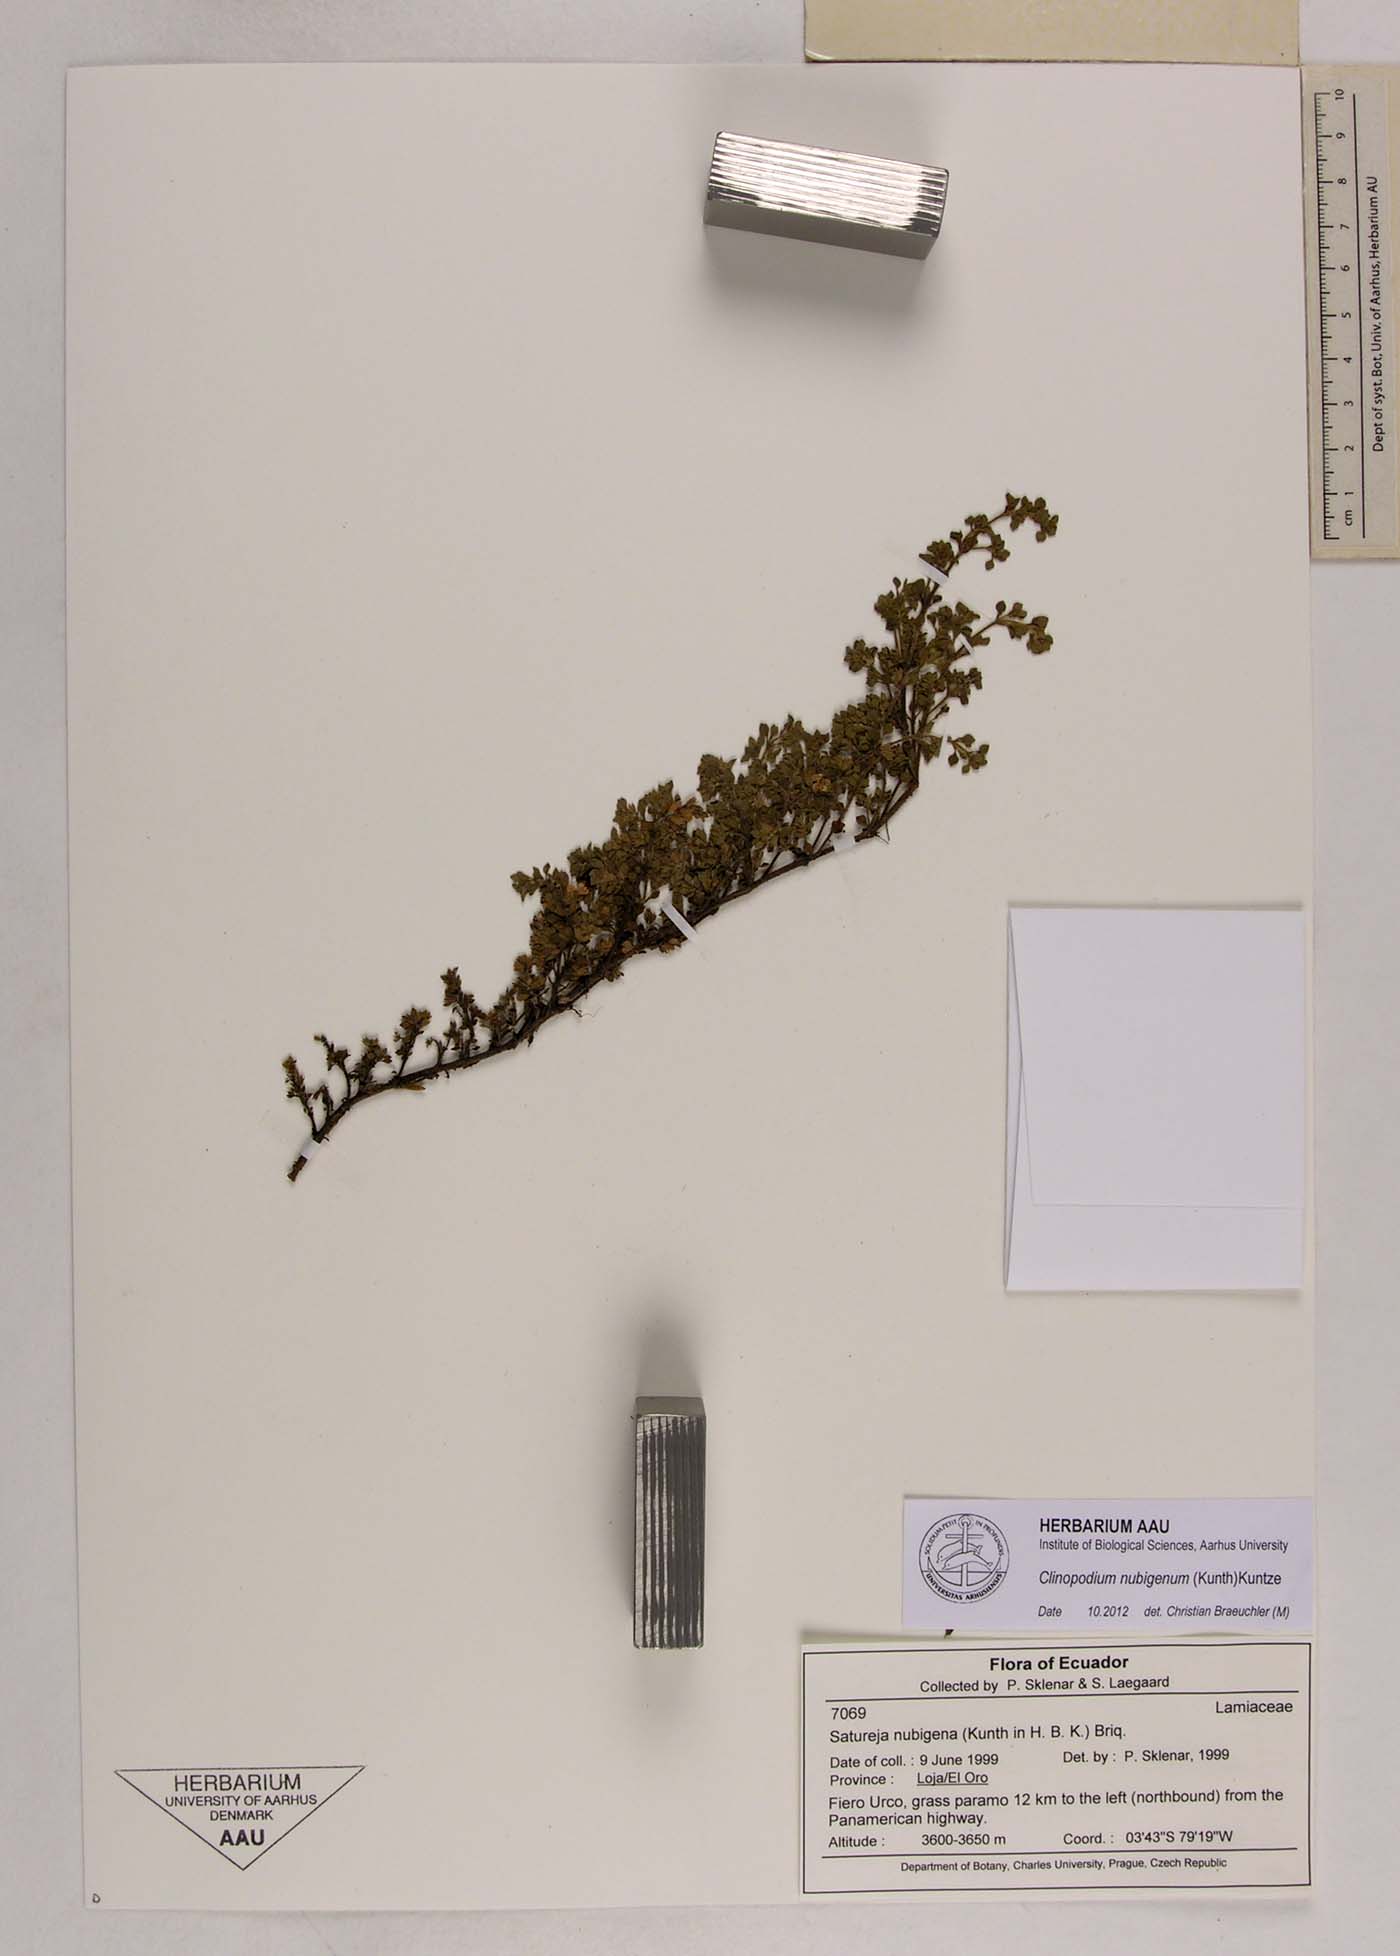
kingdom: Plantae
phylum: Tracheophyta
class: Magnoliopsida
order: Lamiales
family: Lamiaceae
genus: Clinopodium
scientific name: Clinopodium nubigenum
